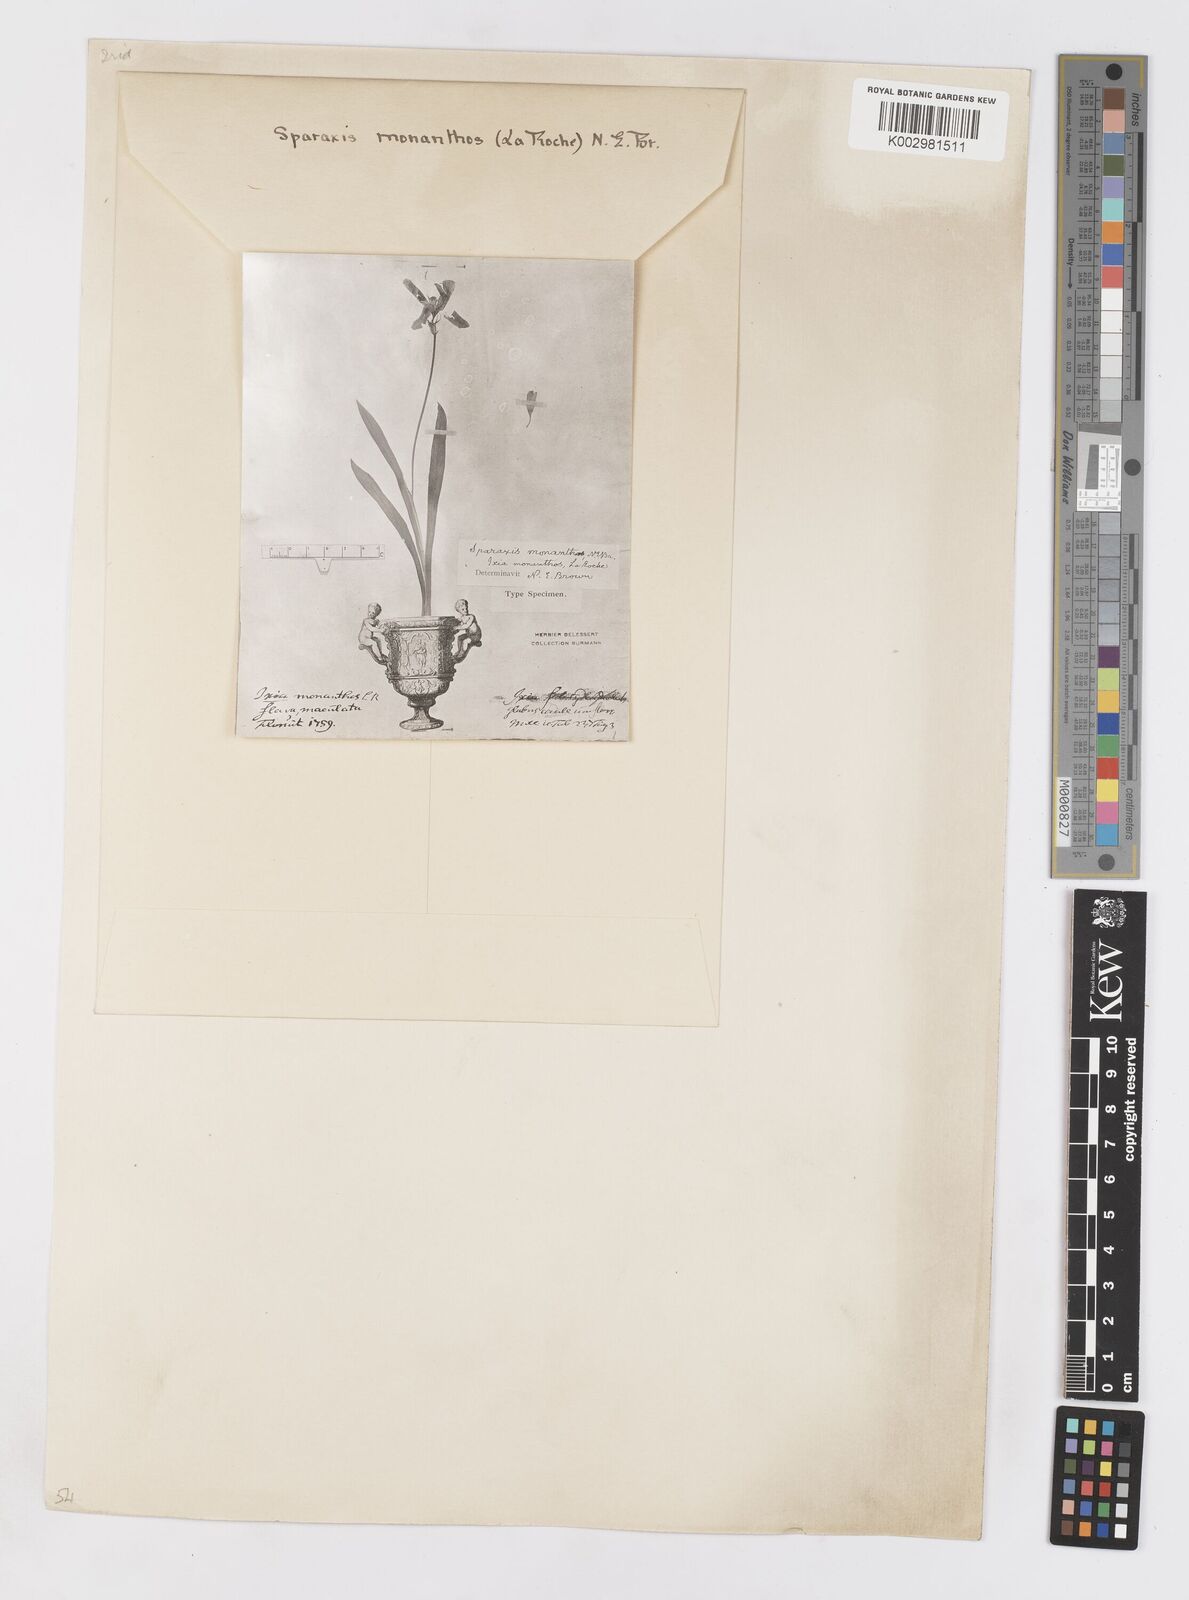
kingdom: Plantae
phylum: Tracheophyta
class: Liliopsida
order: Asparagales
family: Iridaceae
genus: Sparaxis
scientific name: Sparaxis grandiflora
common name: Plain harlequin-flower
